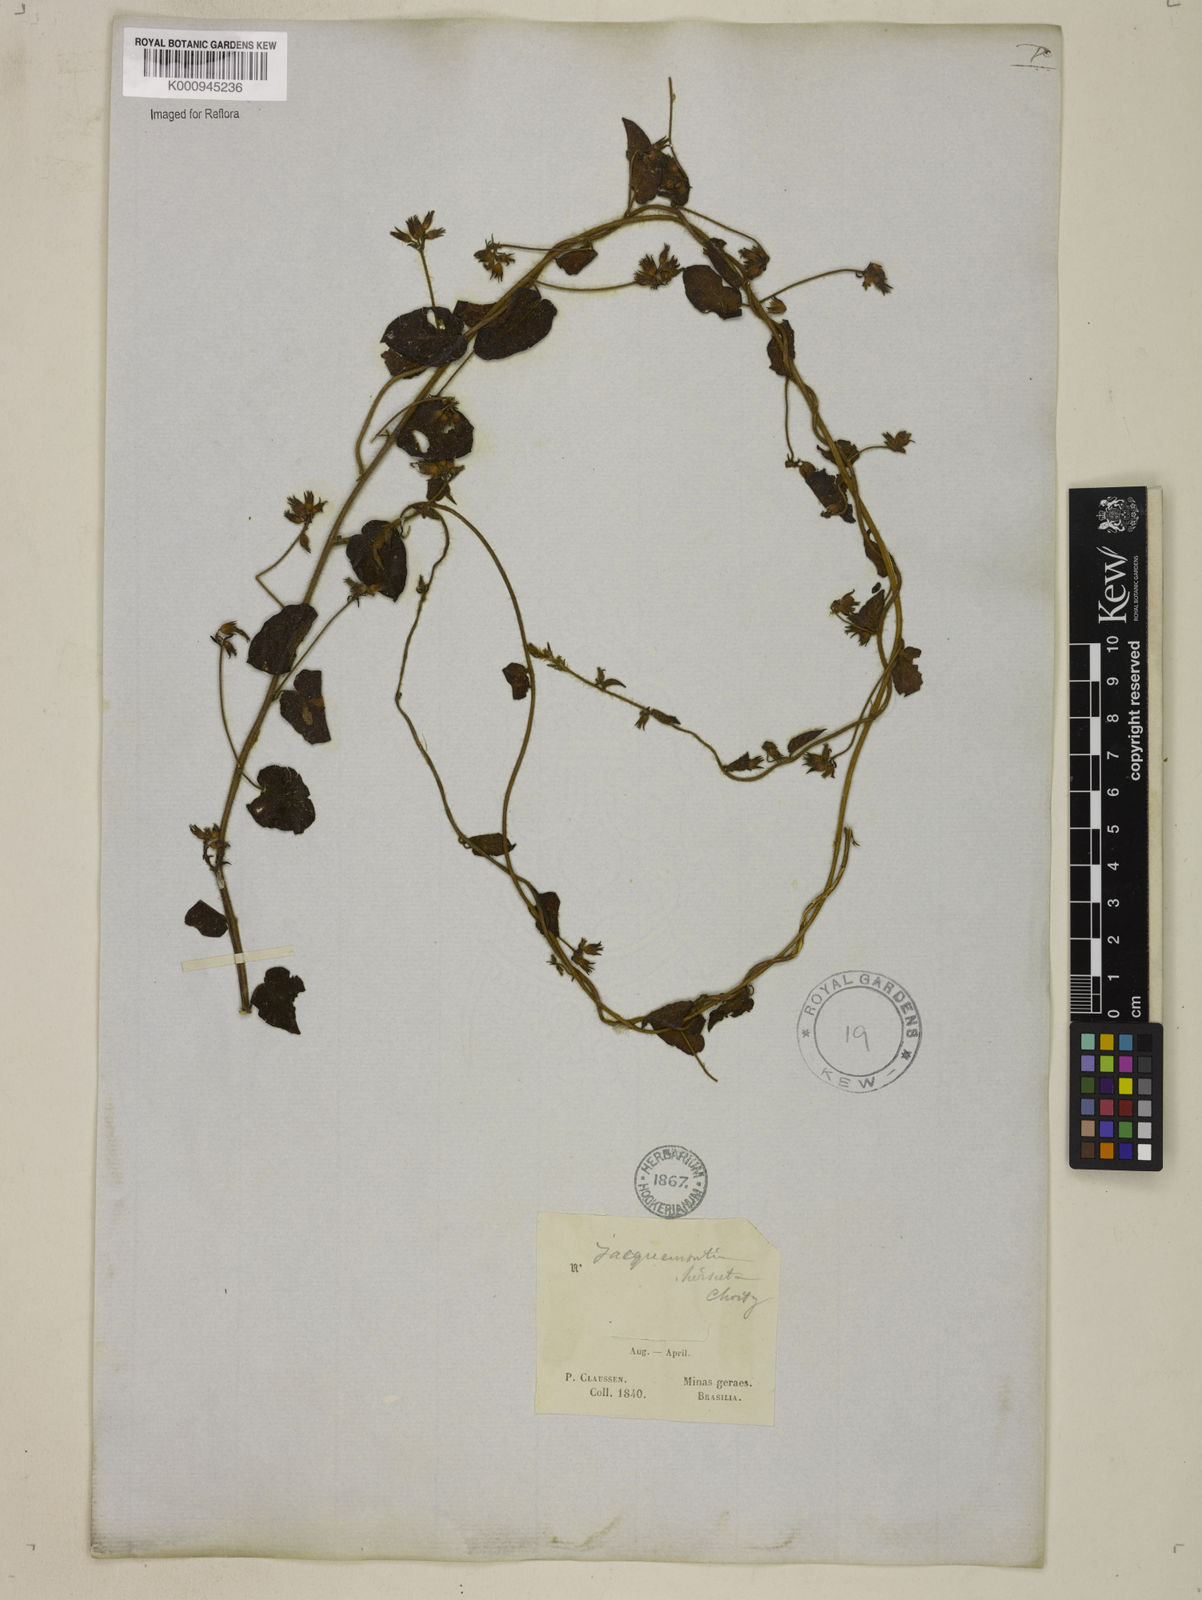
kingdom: Plantae
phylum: Tracheophyta
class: Magnoliopsida
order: Solanales
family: Convolvulaceae
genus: Jacquemontia
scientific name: Jacquemontia sphaerostigma
